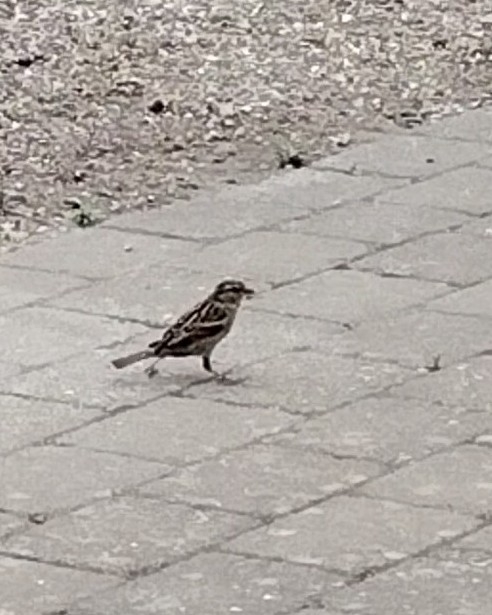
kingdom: Animalia
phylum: Chordata
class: Aves
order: Passeriformes
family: Passeridae
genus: Passer
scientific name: Passer domesticus
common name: Gråspurv
